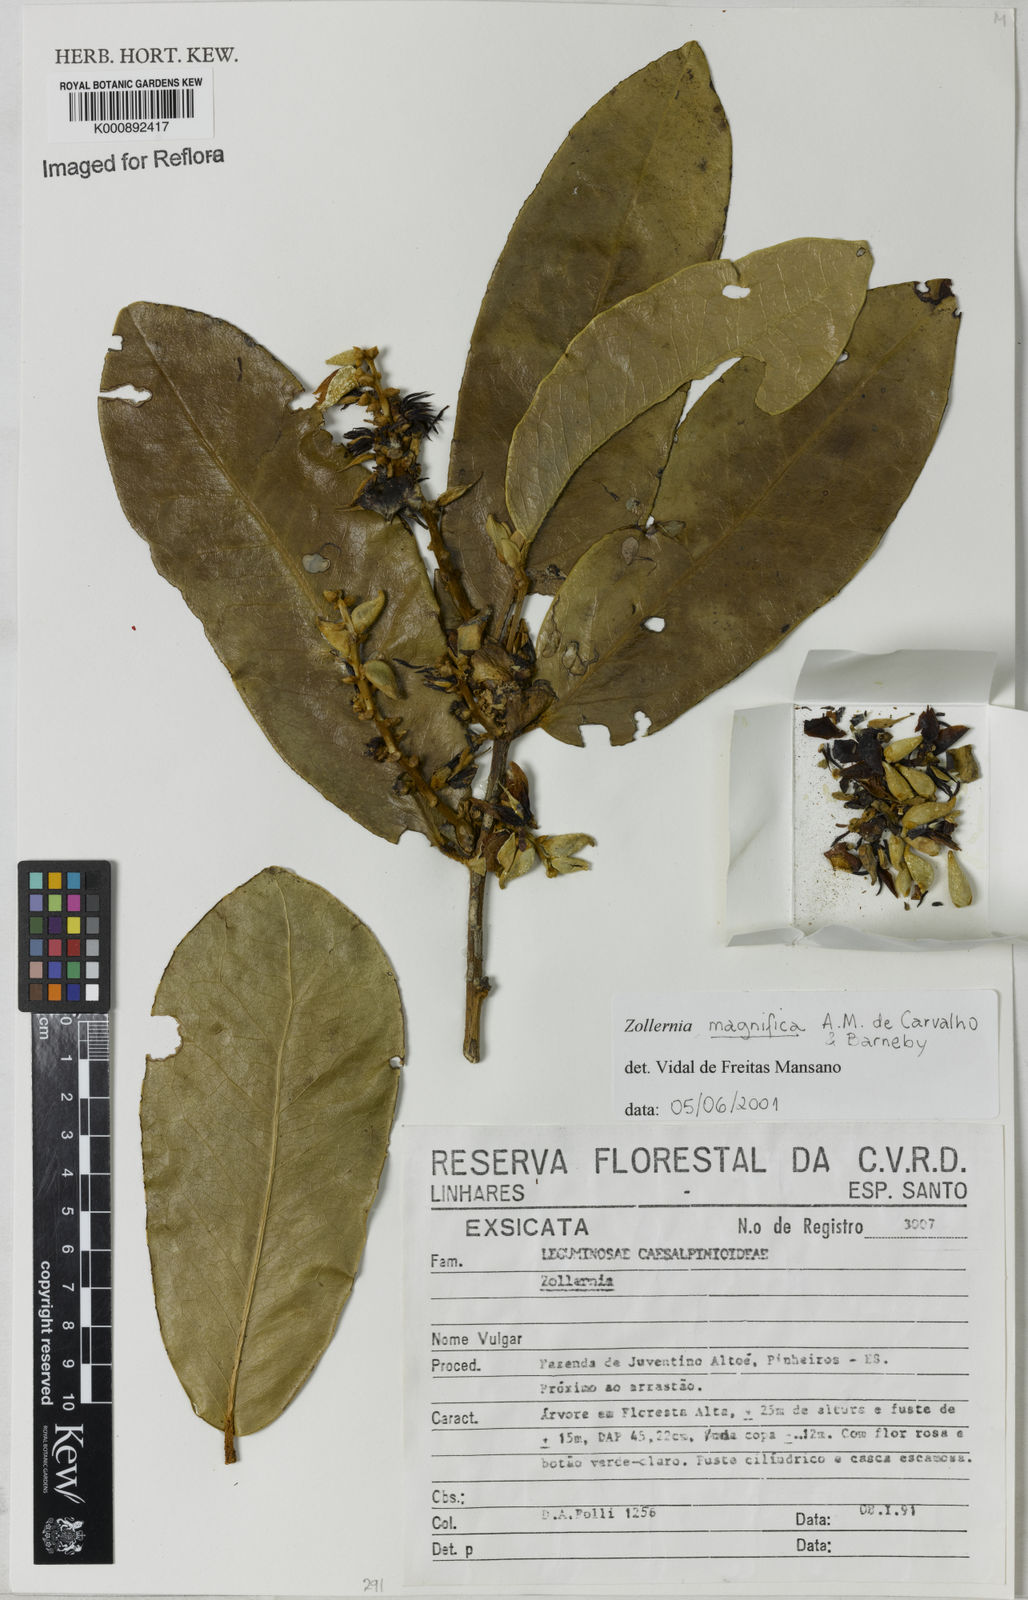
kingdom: Plantae
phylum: Tracheophyta
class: Magnoliopsida
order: Fabales
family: Fabaceae
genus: Zollernia
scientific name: Zollernia magnifica
